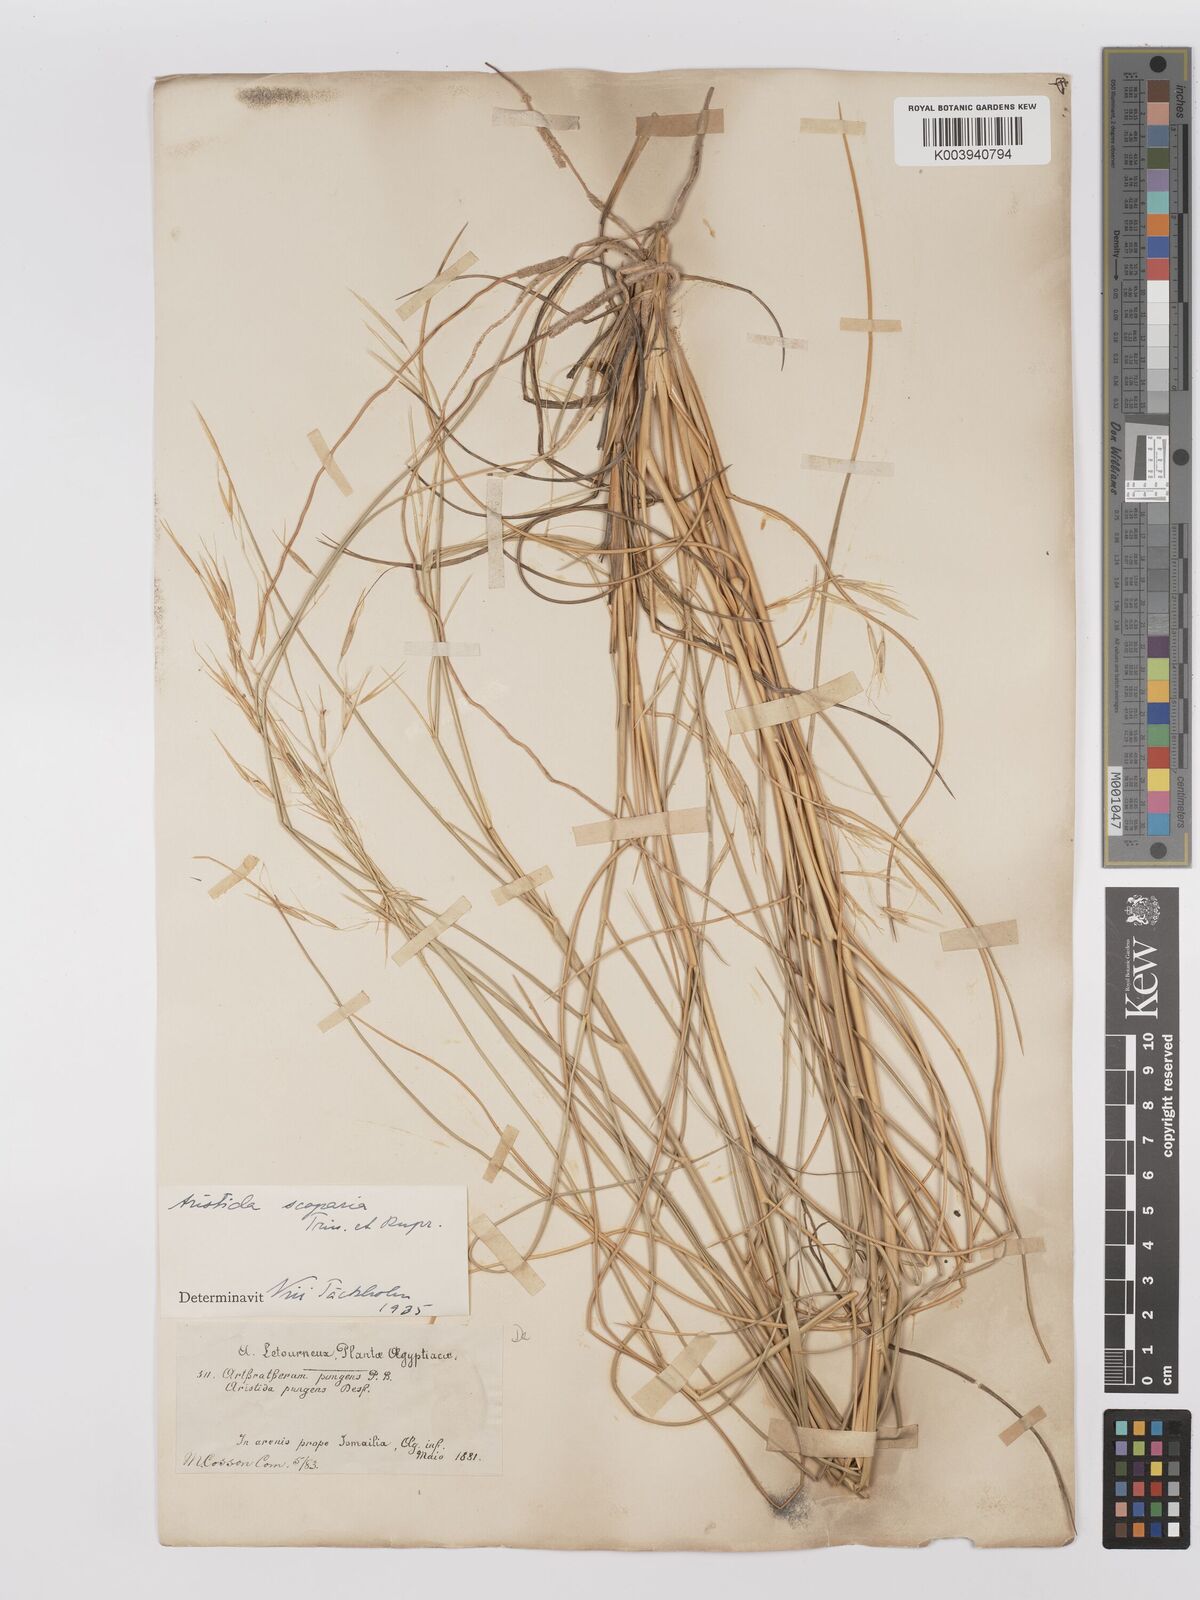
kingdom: Plantae
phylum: Tracheophyta
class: Liliopsida
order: Poales
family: Poaceae
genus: Stipagrostis
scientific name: Stipagrostis scoparia
